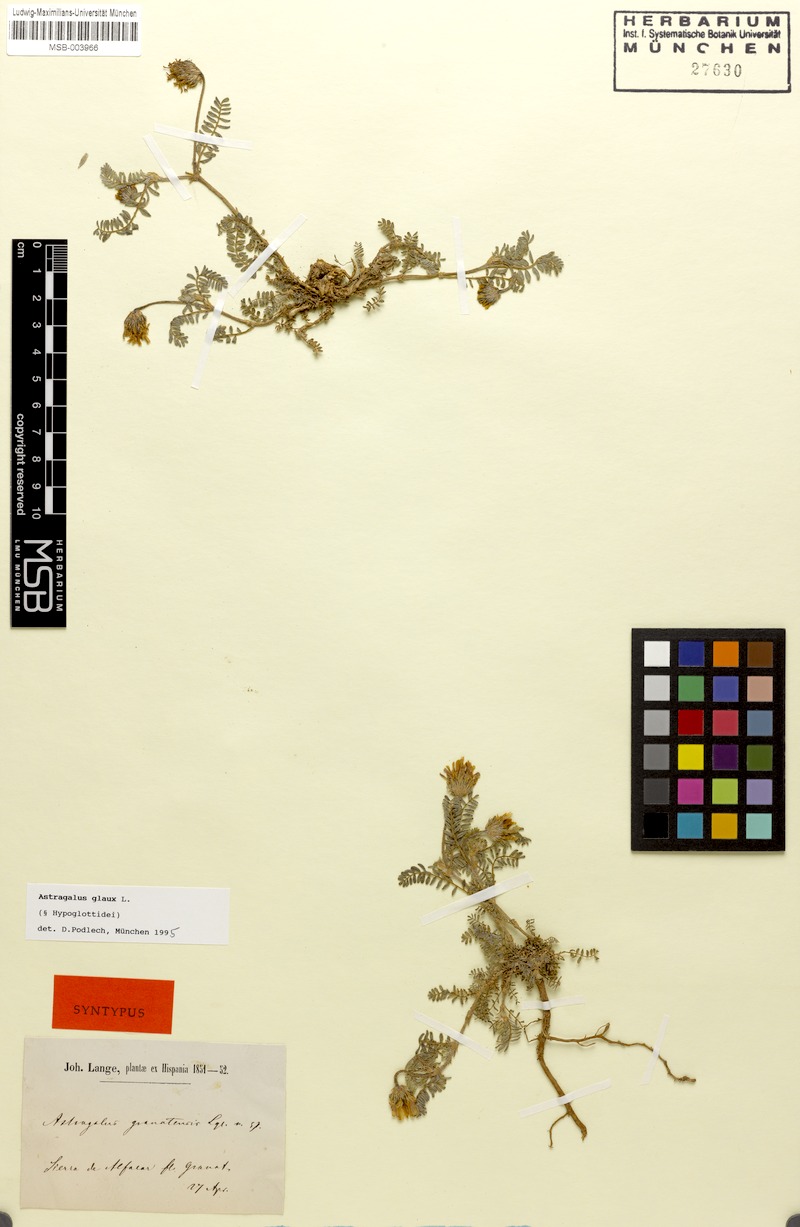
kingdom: Plantae
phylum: Tracheophyta
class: Magnoliopsida
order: Fabales
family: Fabaceae
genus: Astragalus
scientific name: Astragalus glaux
